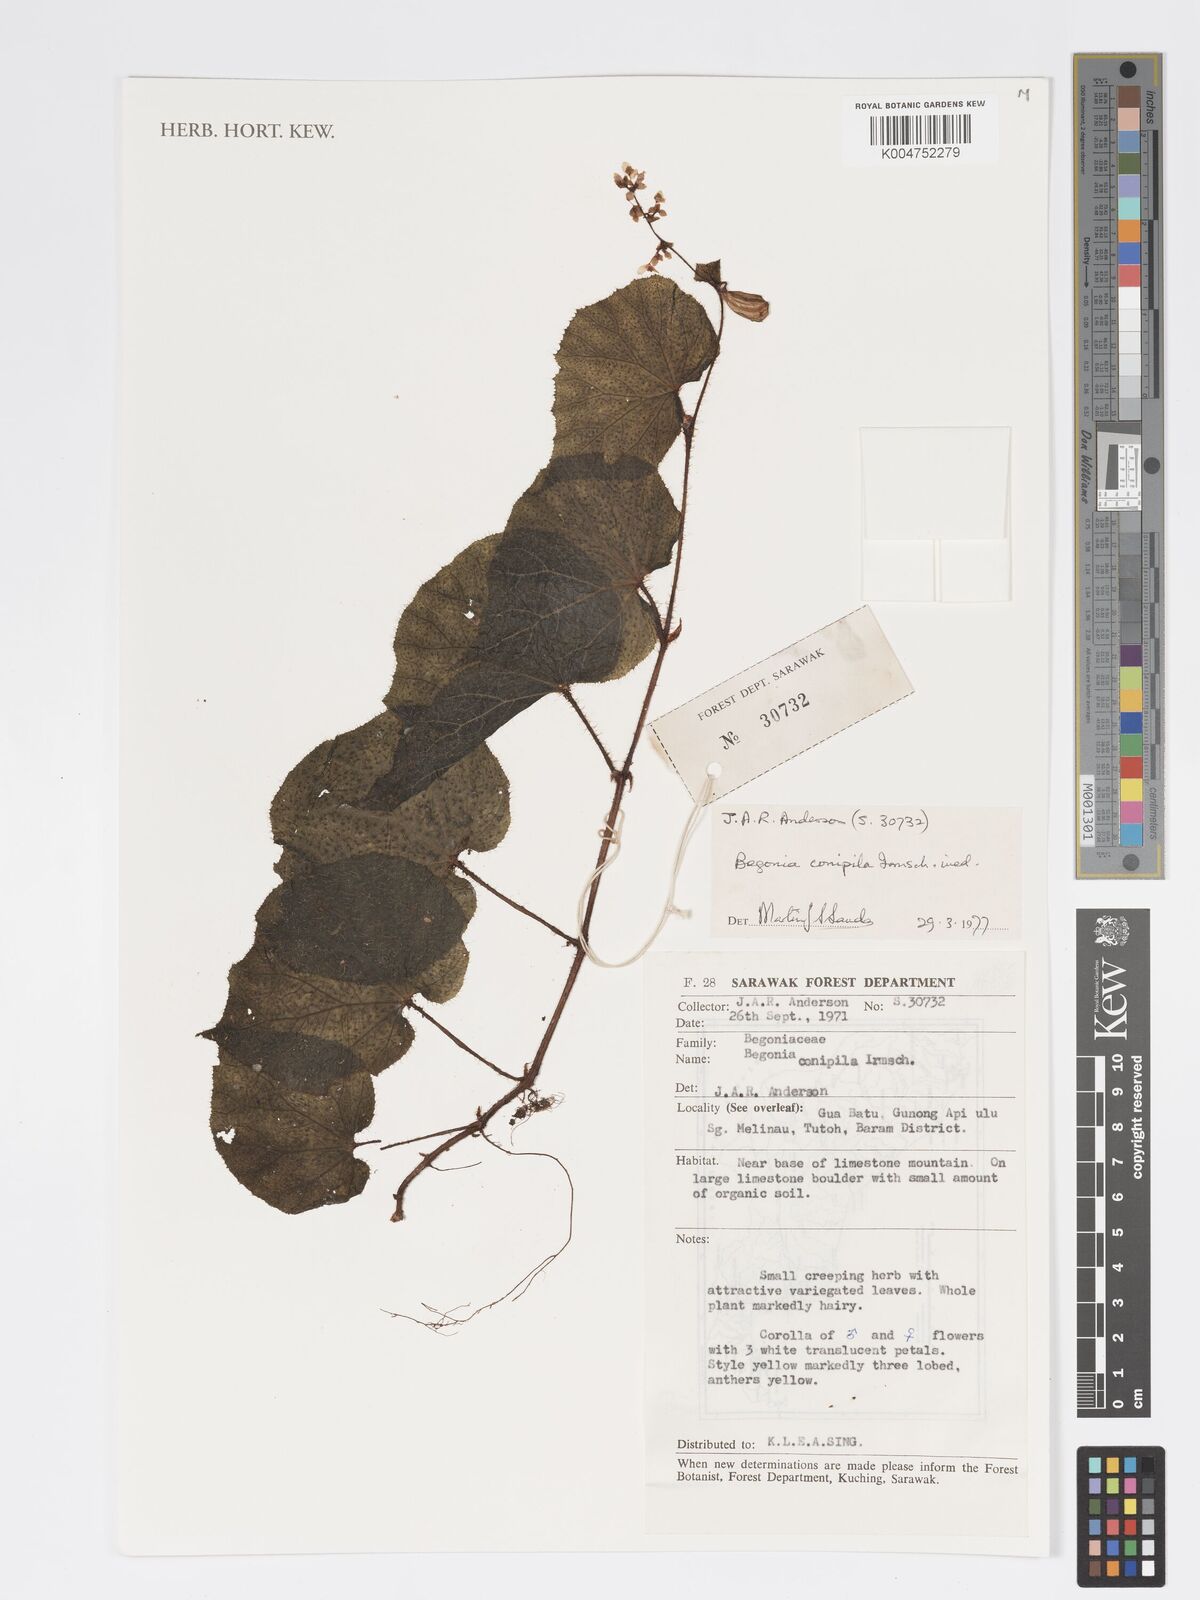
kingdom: Plantae
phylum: Tracheophyta
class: Magnoliopsida
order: Cucurbitales
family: Begoniaceae
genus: Begonia
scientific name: Begonia conipila
